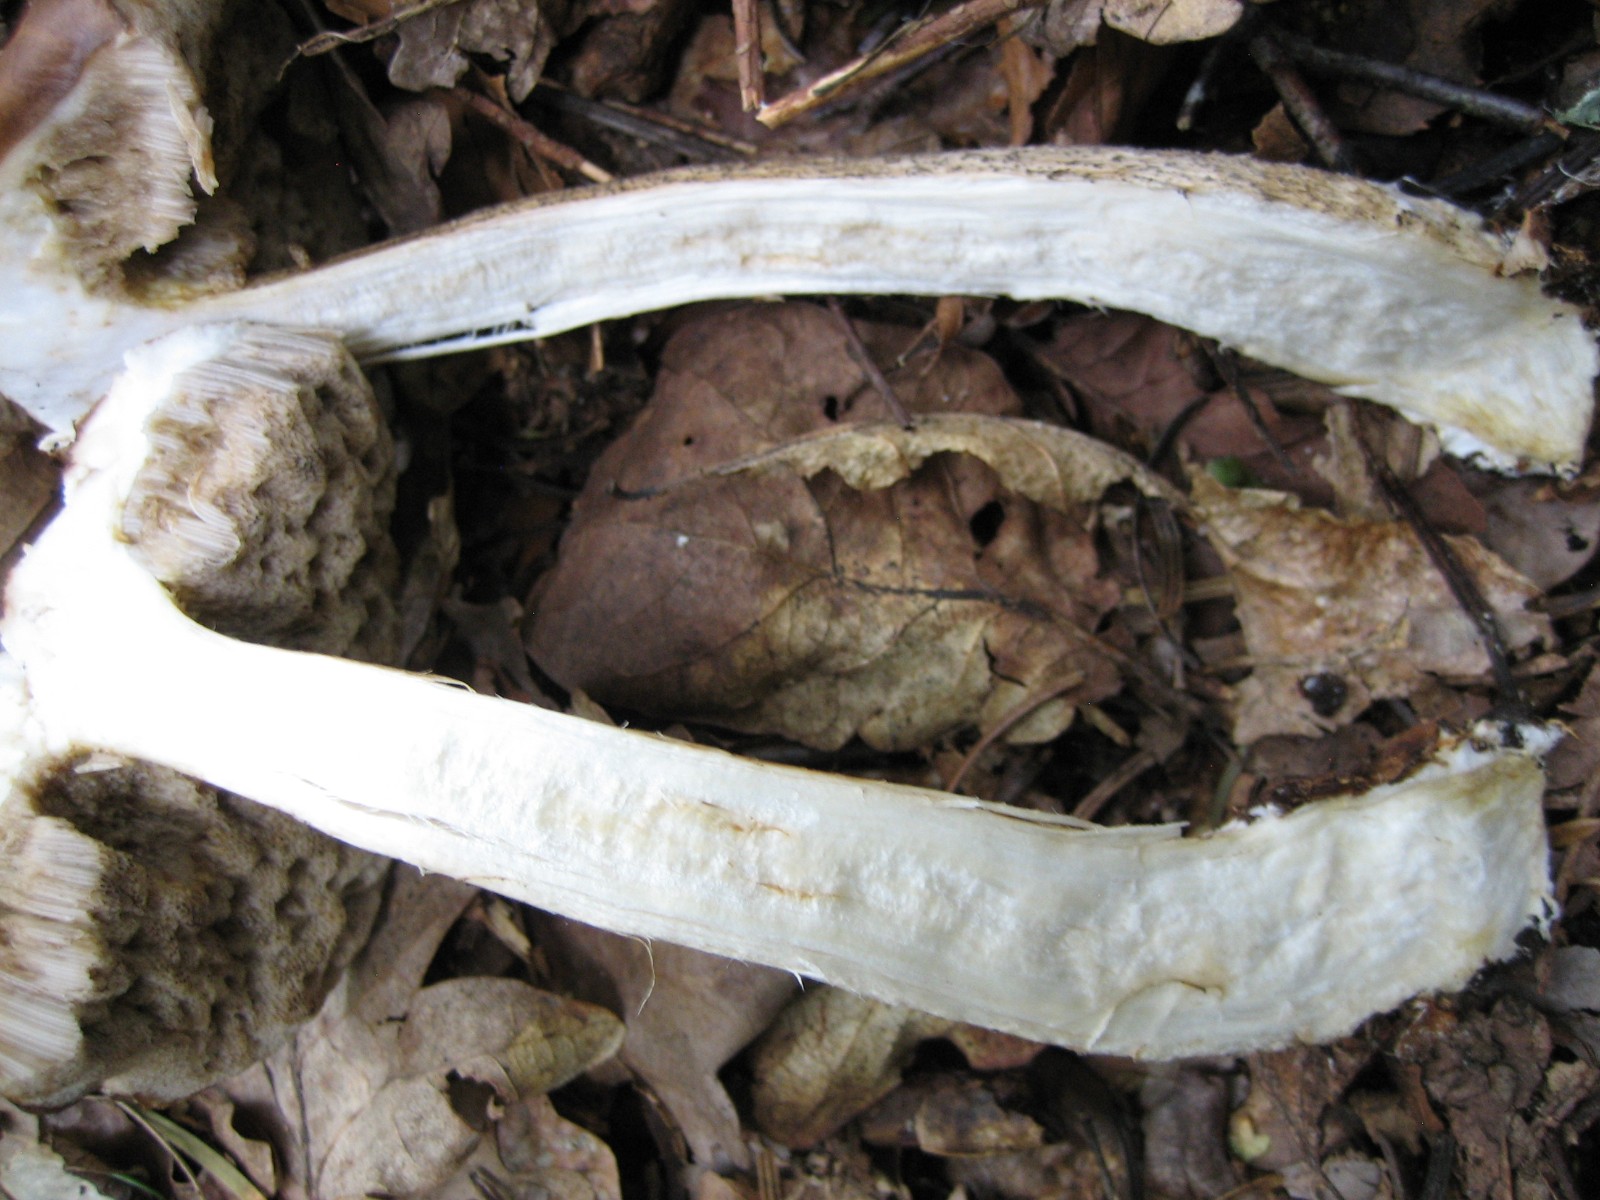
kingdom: Fungi
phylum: Basidiomycota
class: Agaricomycetes
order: Boletales
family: Boletaceae
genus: Leccinum
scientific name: Leccinum scabrum
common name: brun skælrørhat
